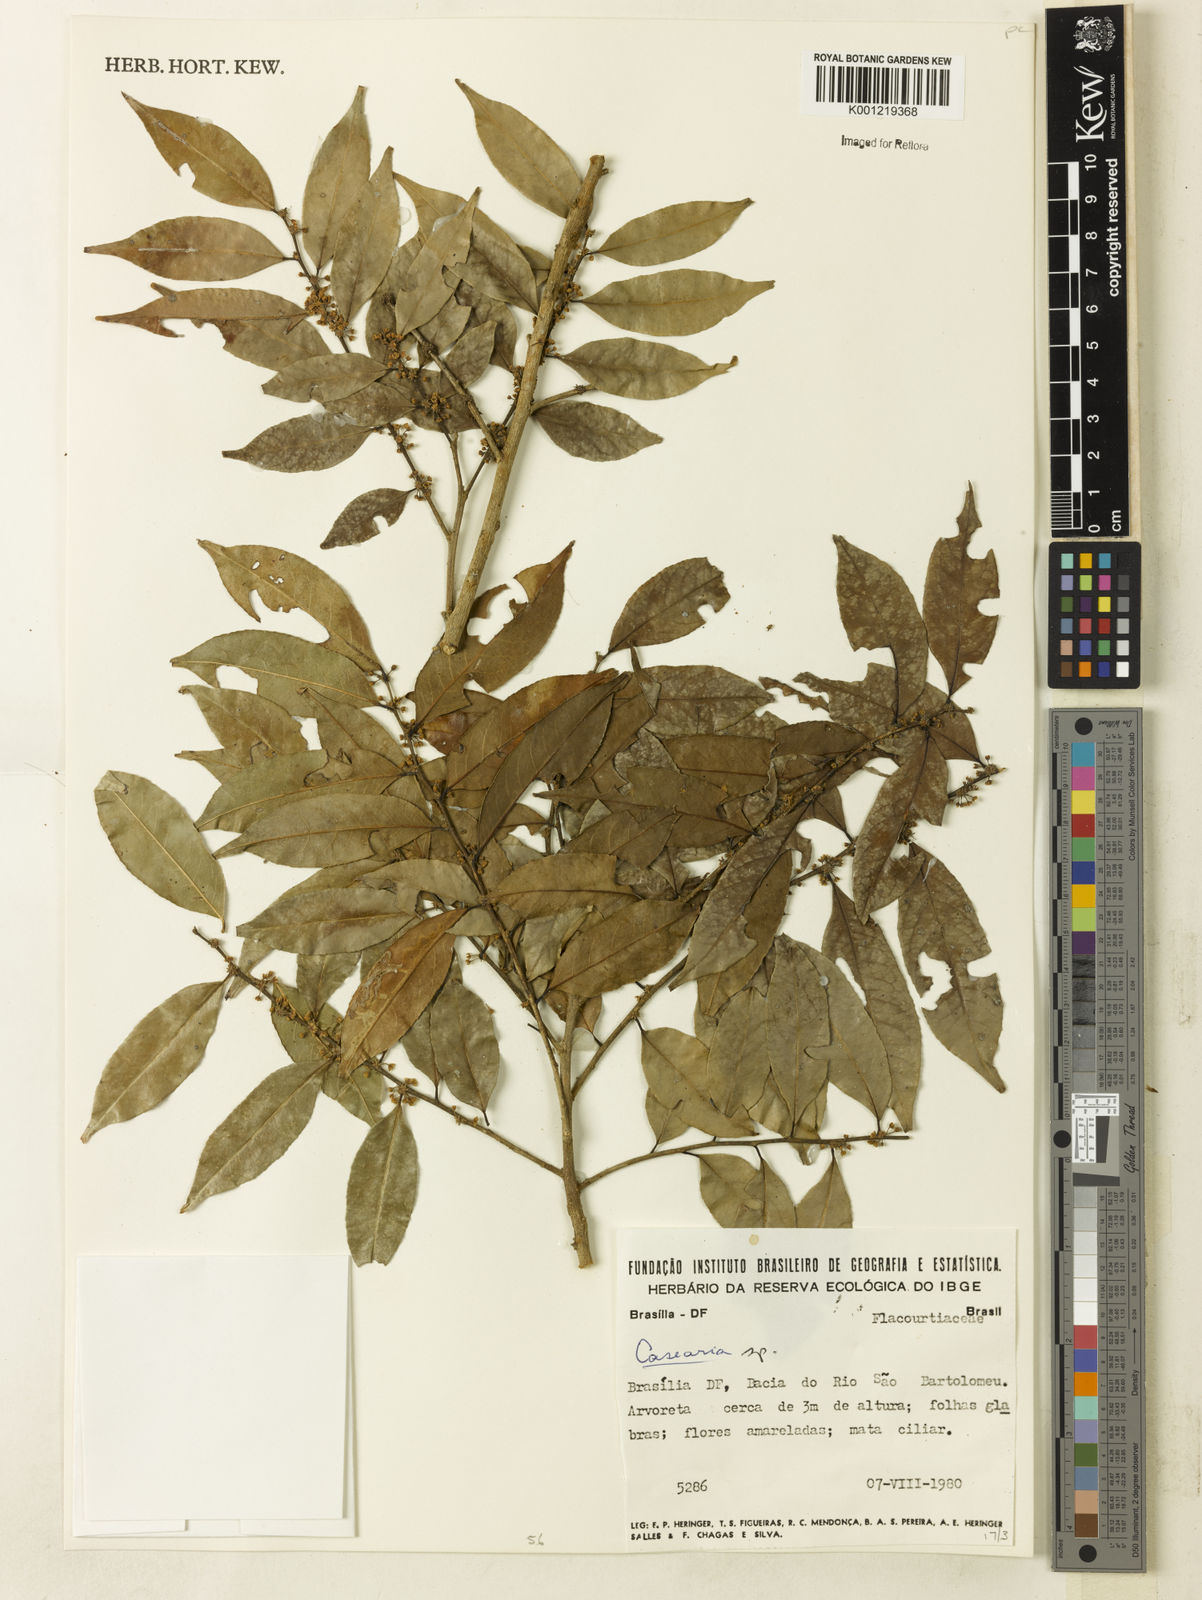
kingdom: Plantae
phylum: Tracheophyta
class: Magnoliopsida
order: Malpighiales
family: Salicaceae
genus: Casearia
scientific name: Casearia
